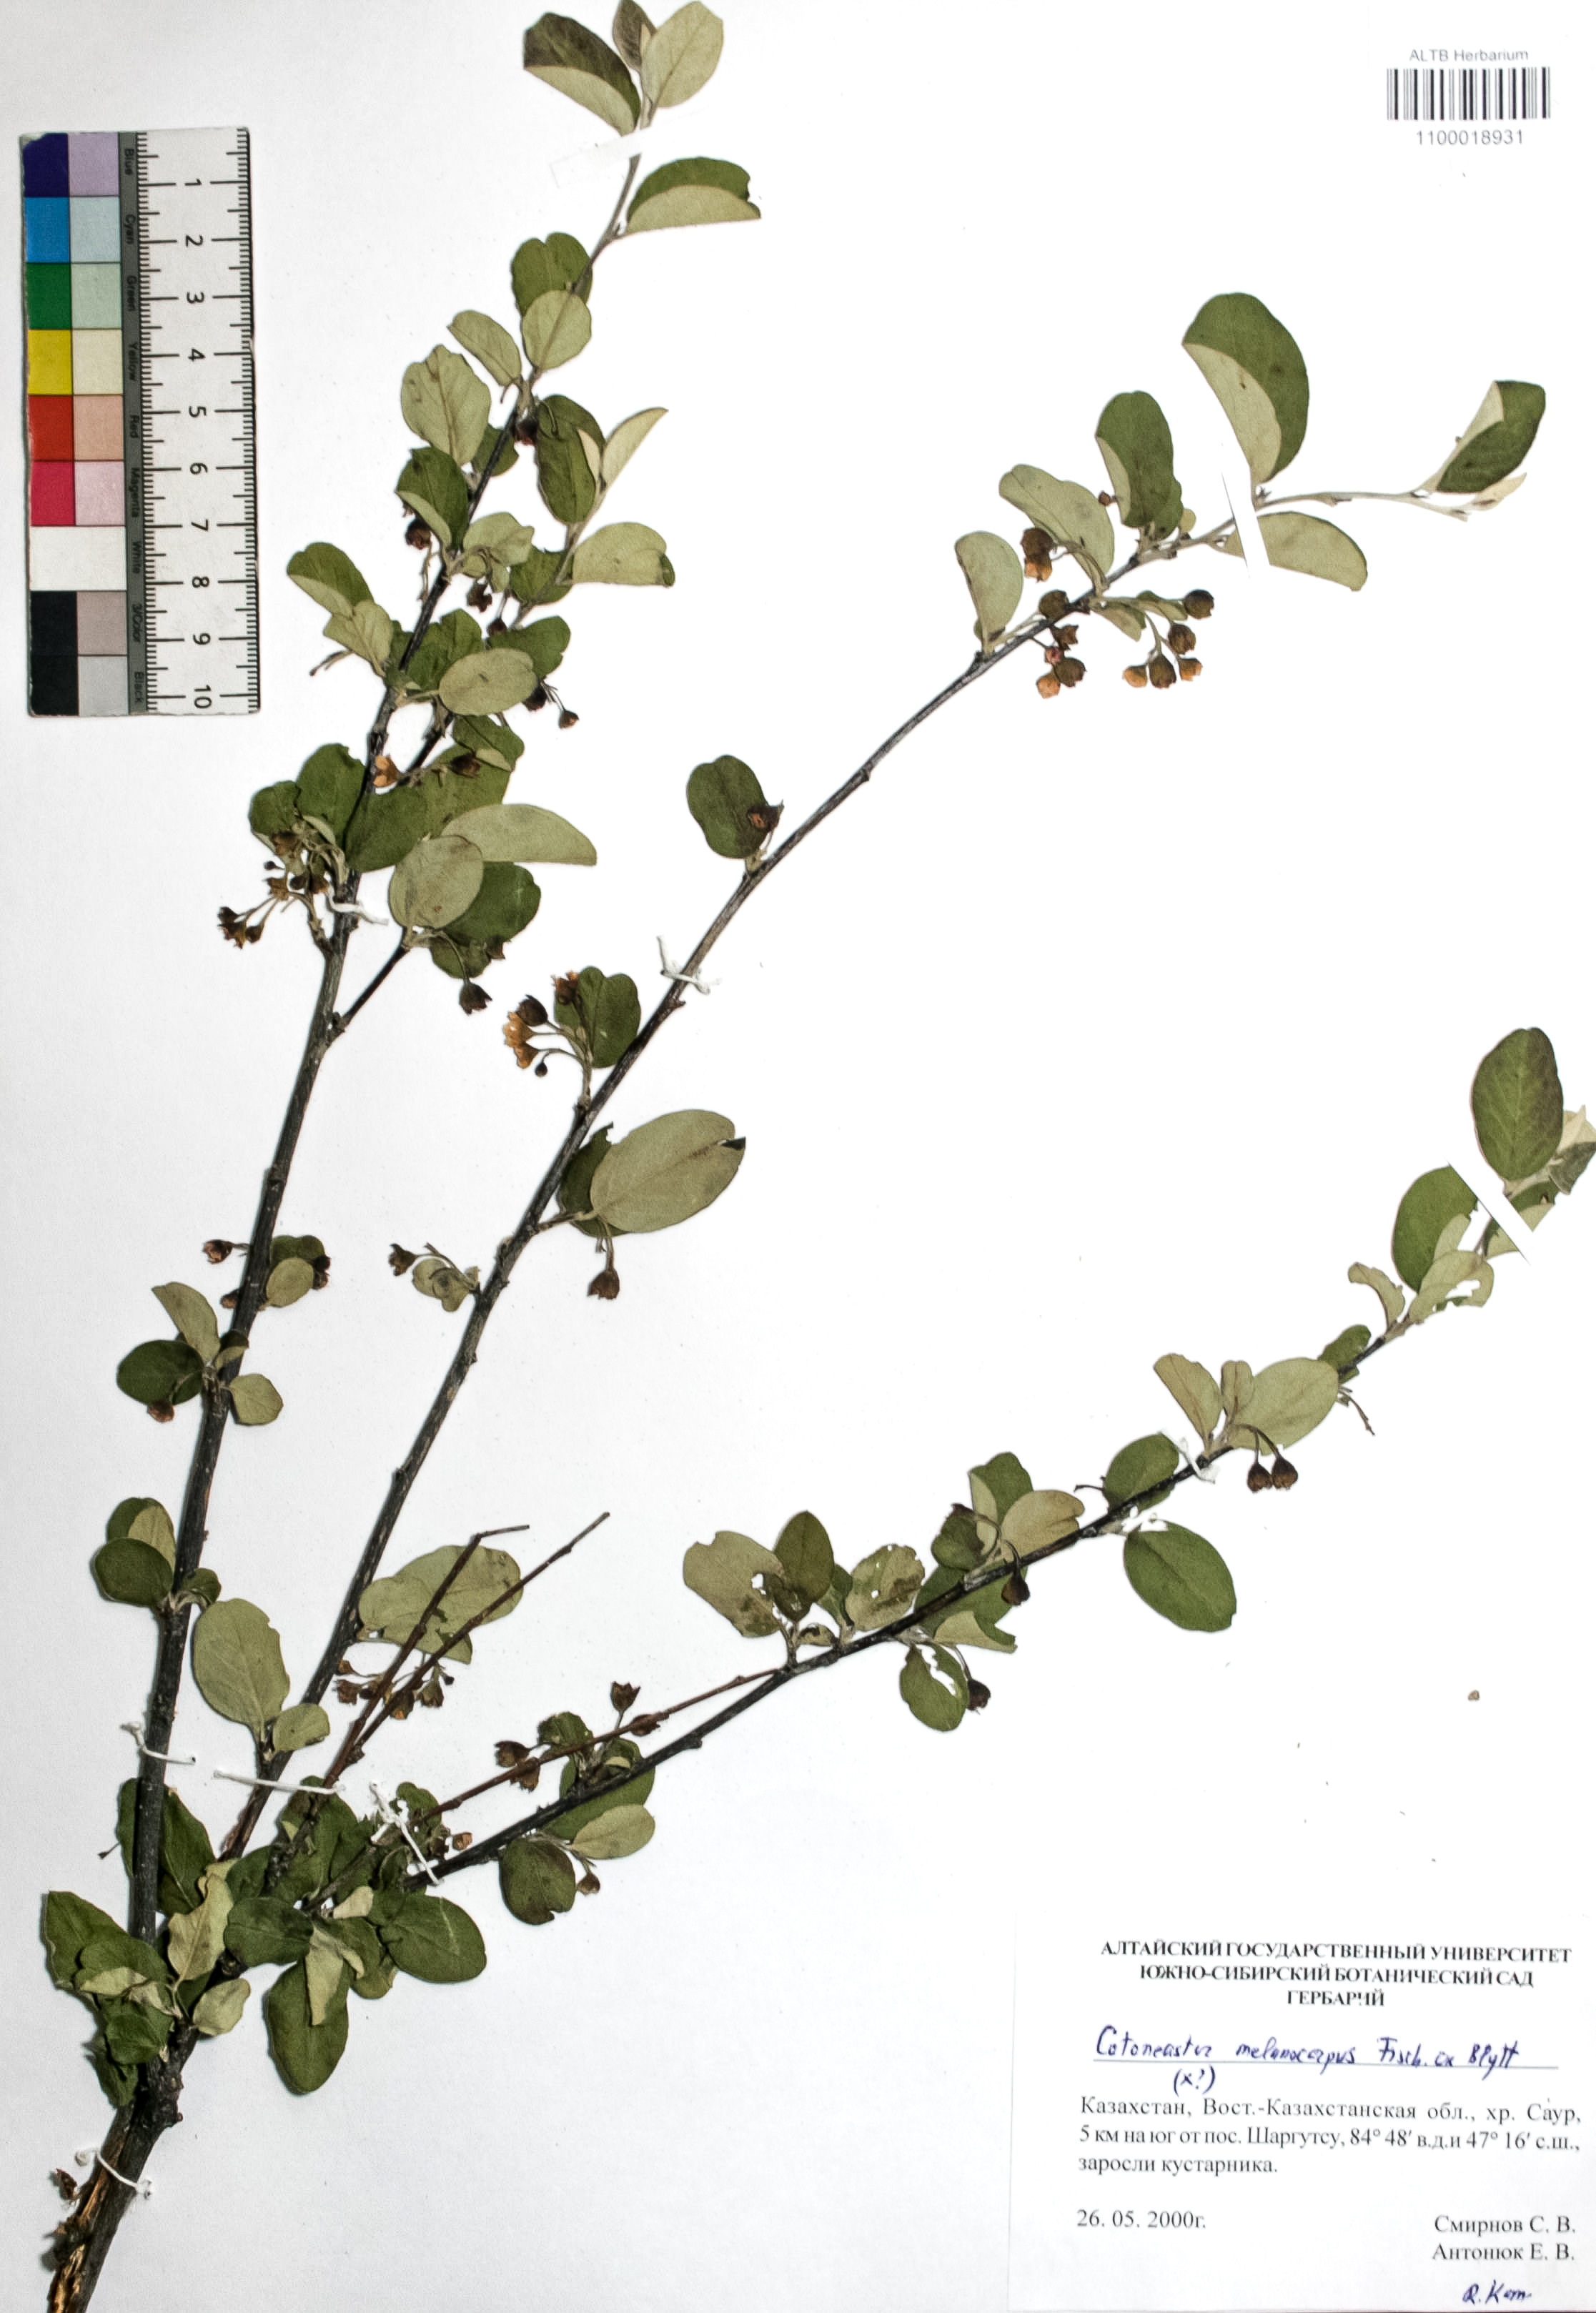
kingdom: Plantae
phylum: Tracheophyta
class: Magnoliopsida
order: Rosales
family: Rosaceae
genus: Cotoneaster
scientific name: Cotoneaster niger
